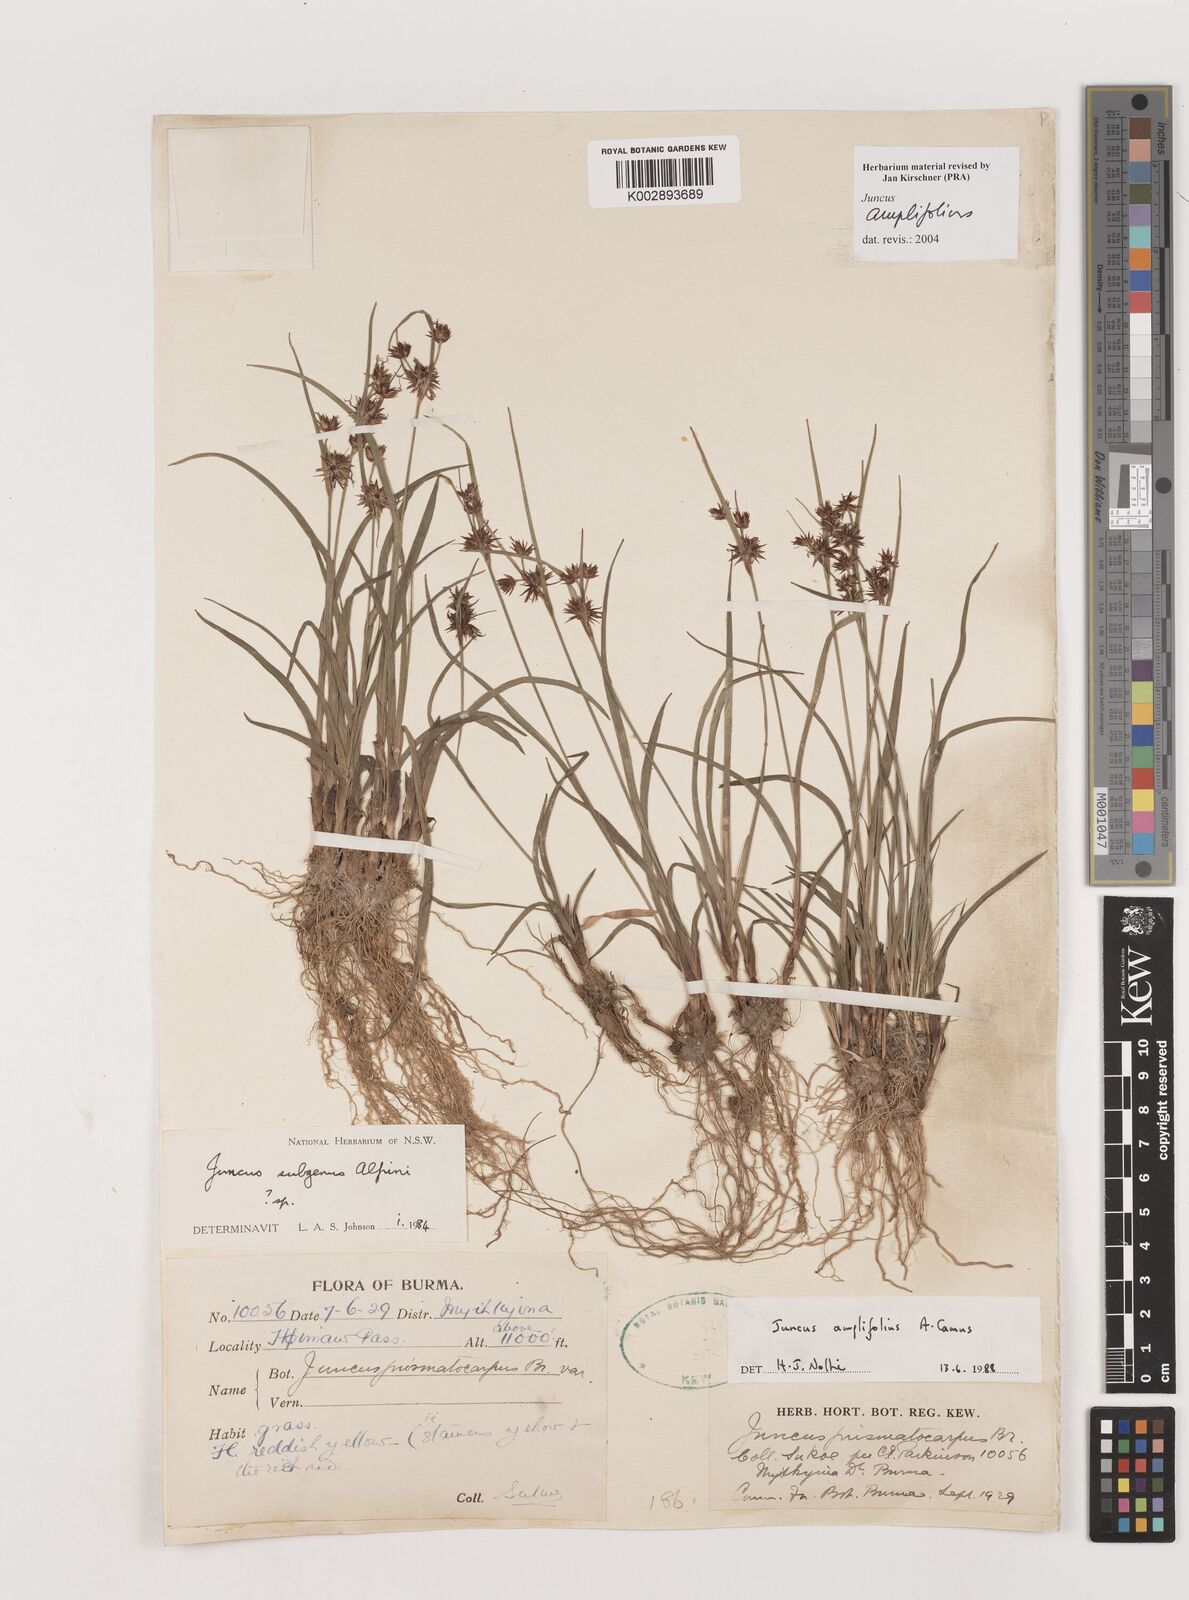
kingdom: Plantae
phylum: Tracheophyta
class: Liliopsida
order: Poales
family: Juncaceae
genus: Juncus
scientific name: Juncus amplifolius
